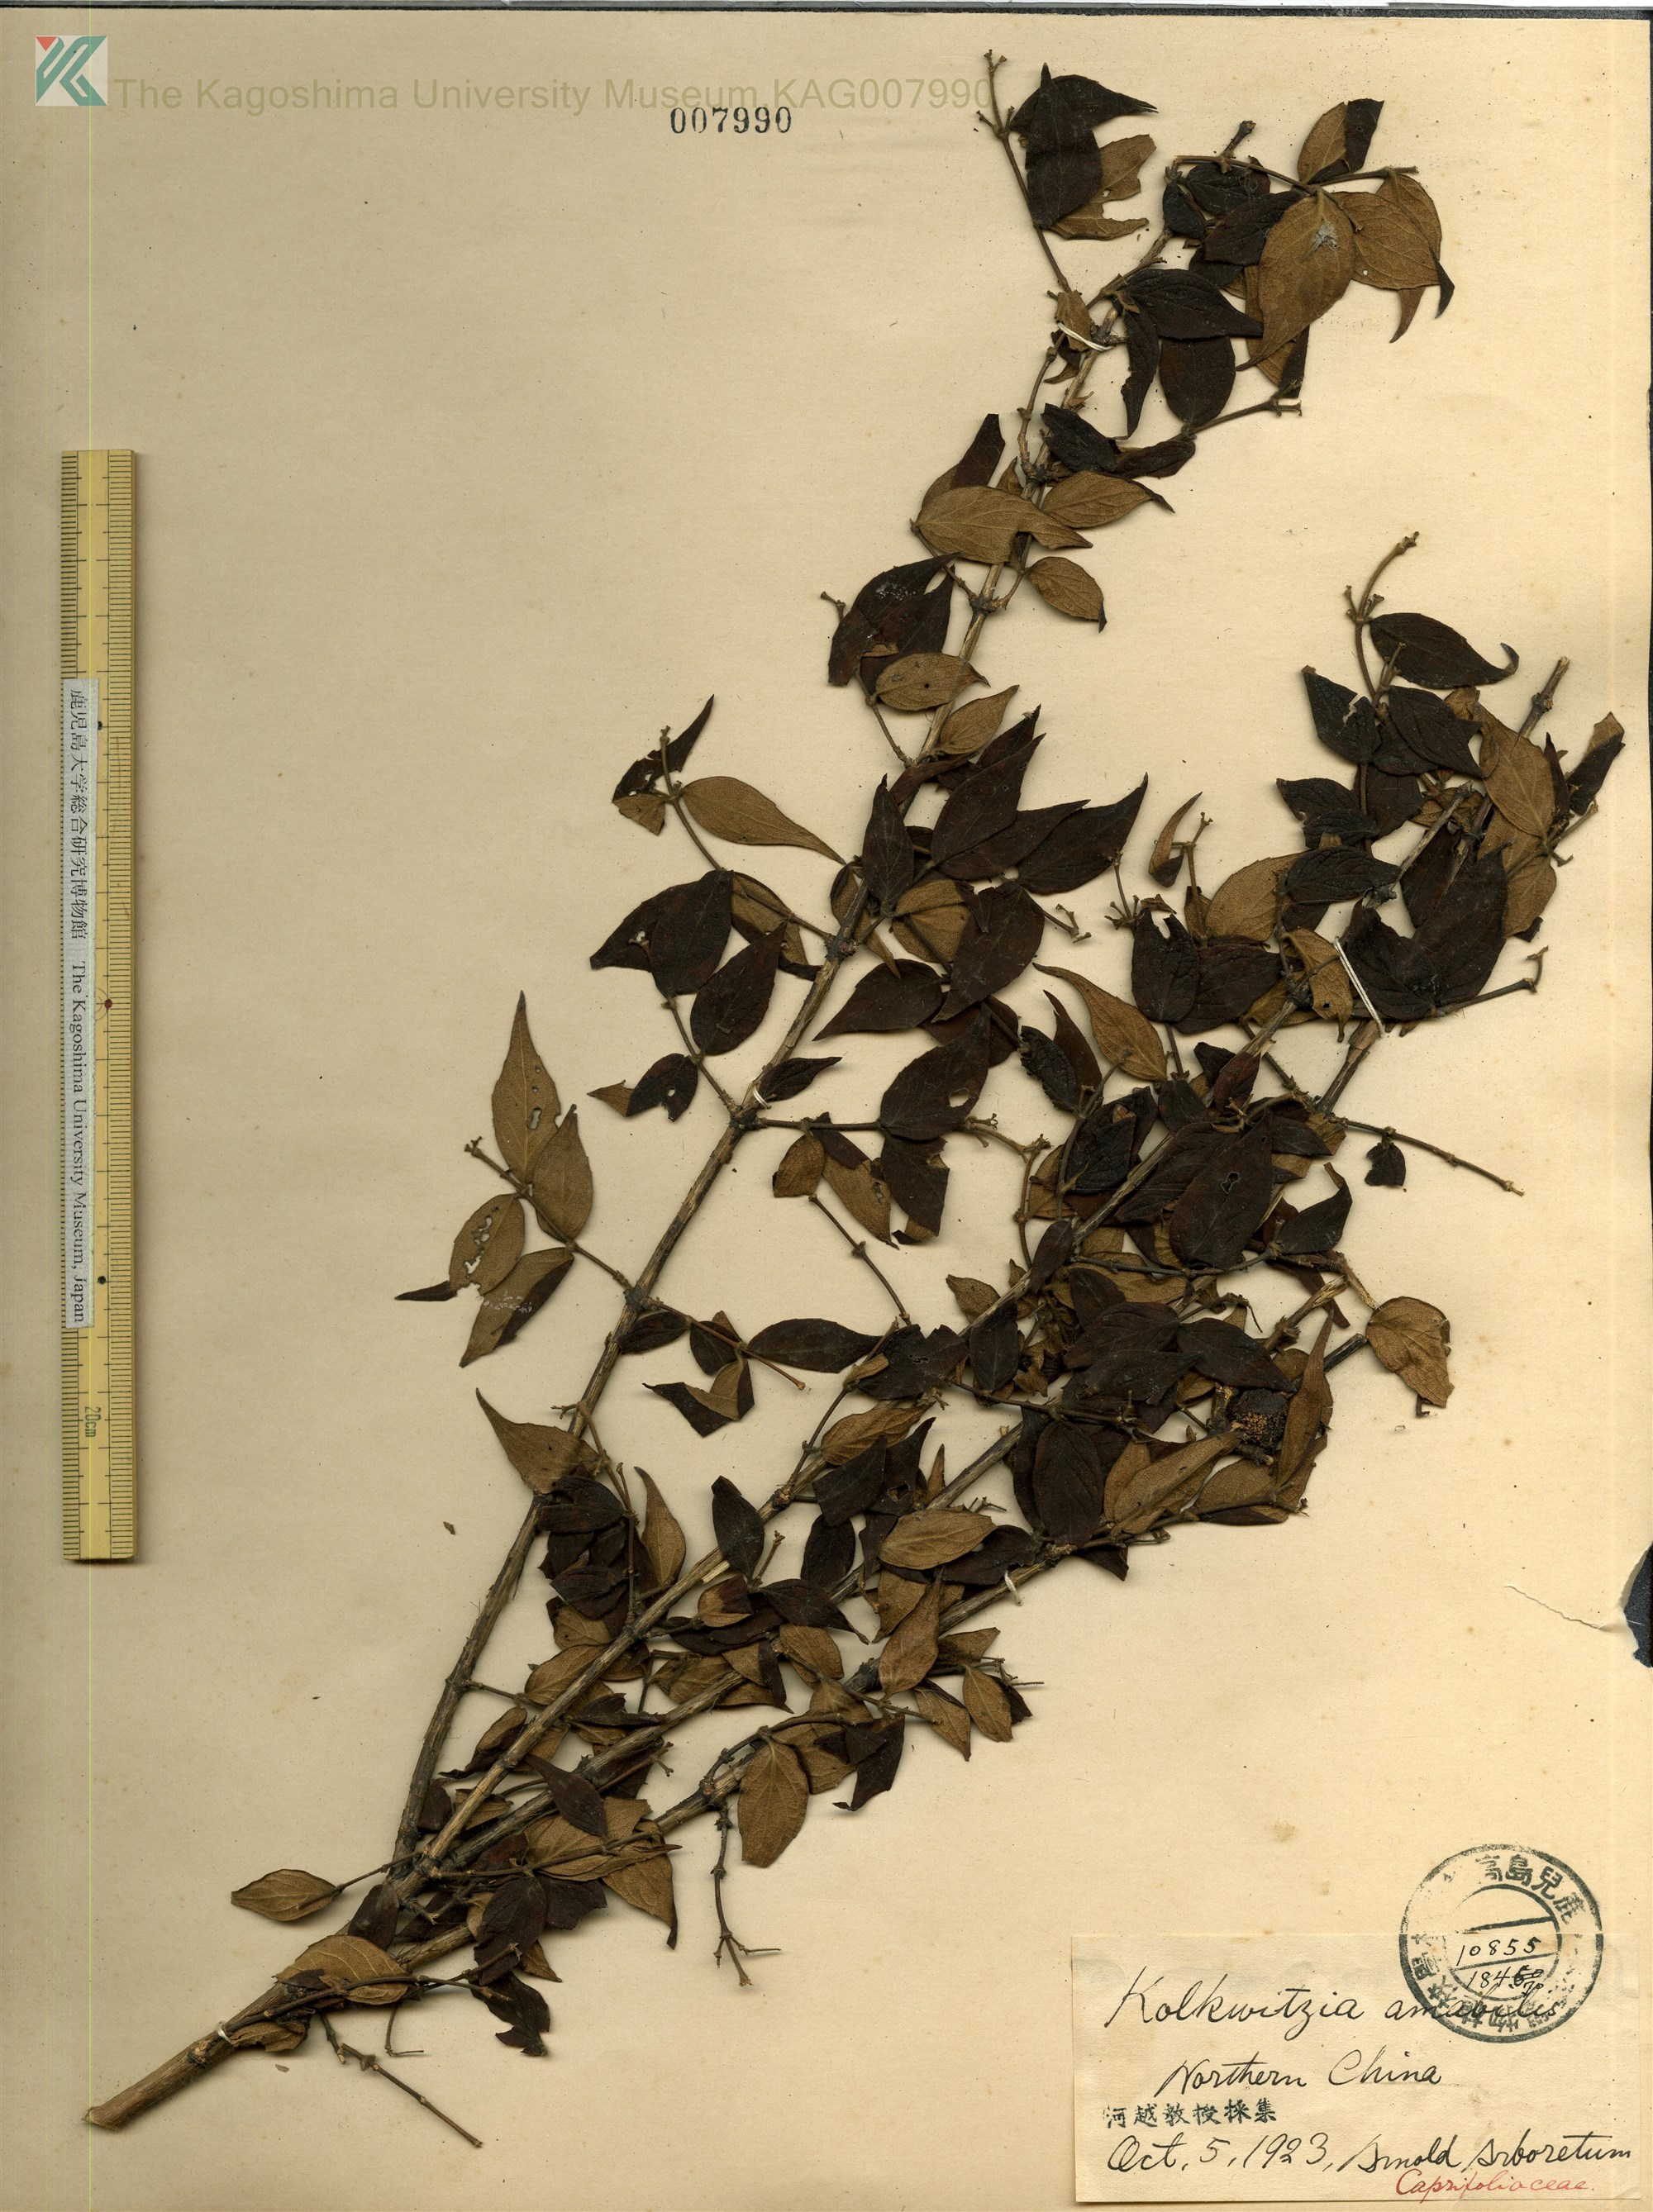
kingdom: Plantae
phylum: Tracheophyta
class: Magnoliopsida
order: Dipsacales
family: Caprifoliaceae
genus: Kolkwitzia
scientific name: Kolkwitzia amabilis
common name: Beautybush
